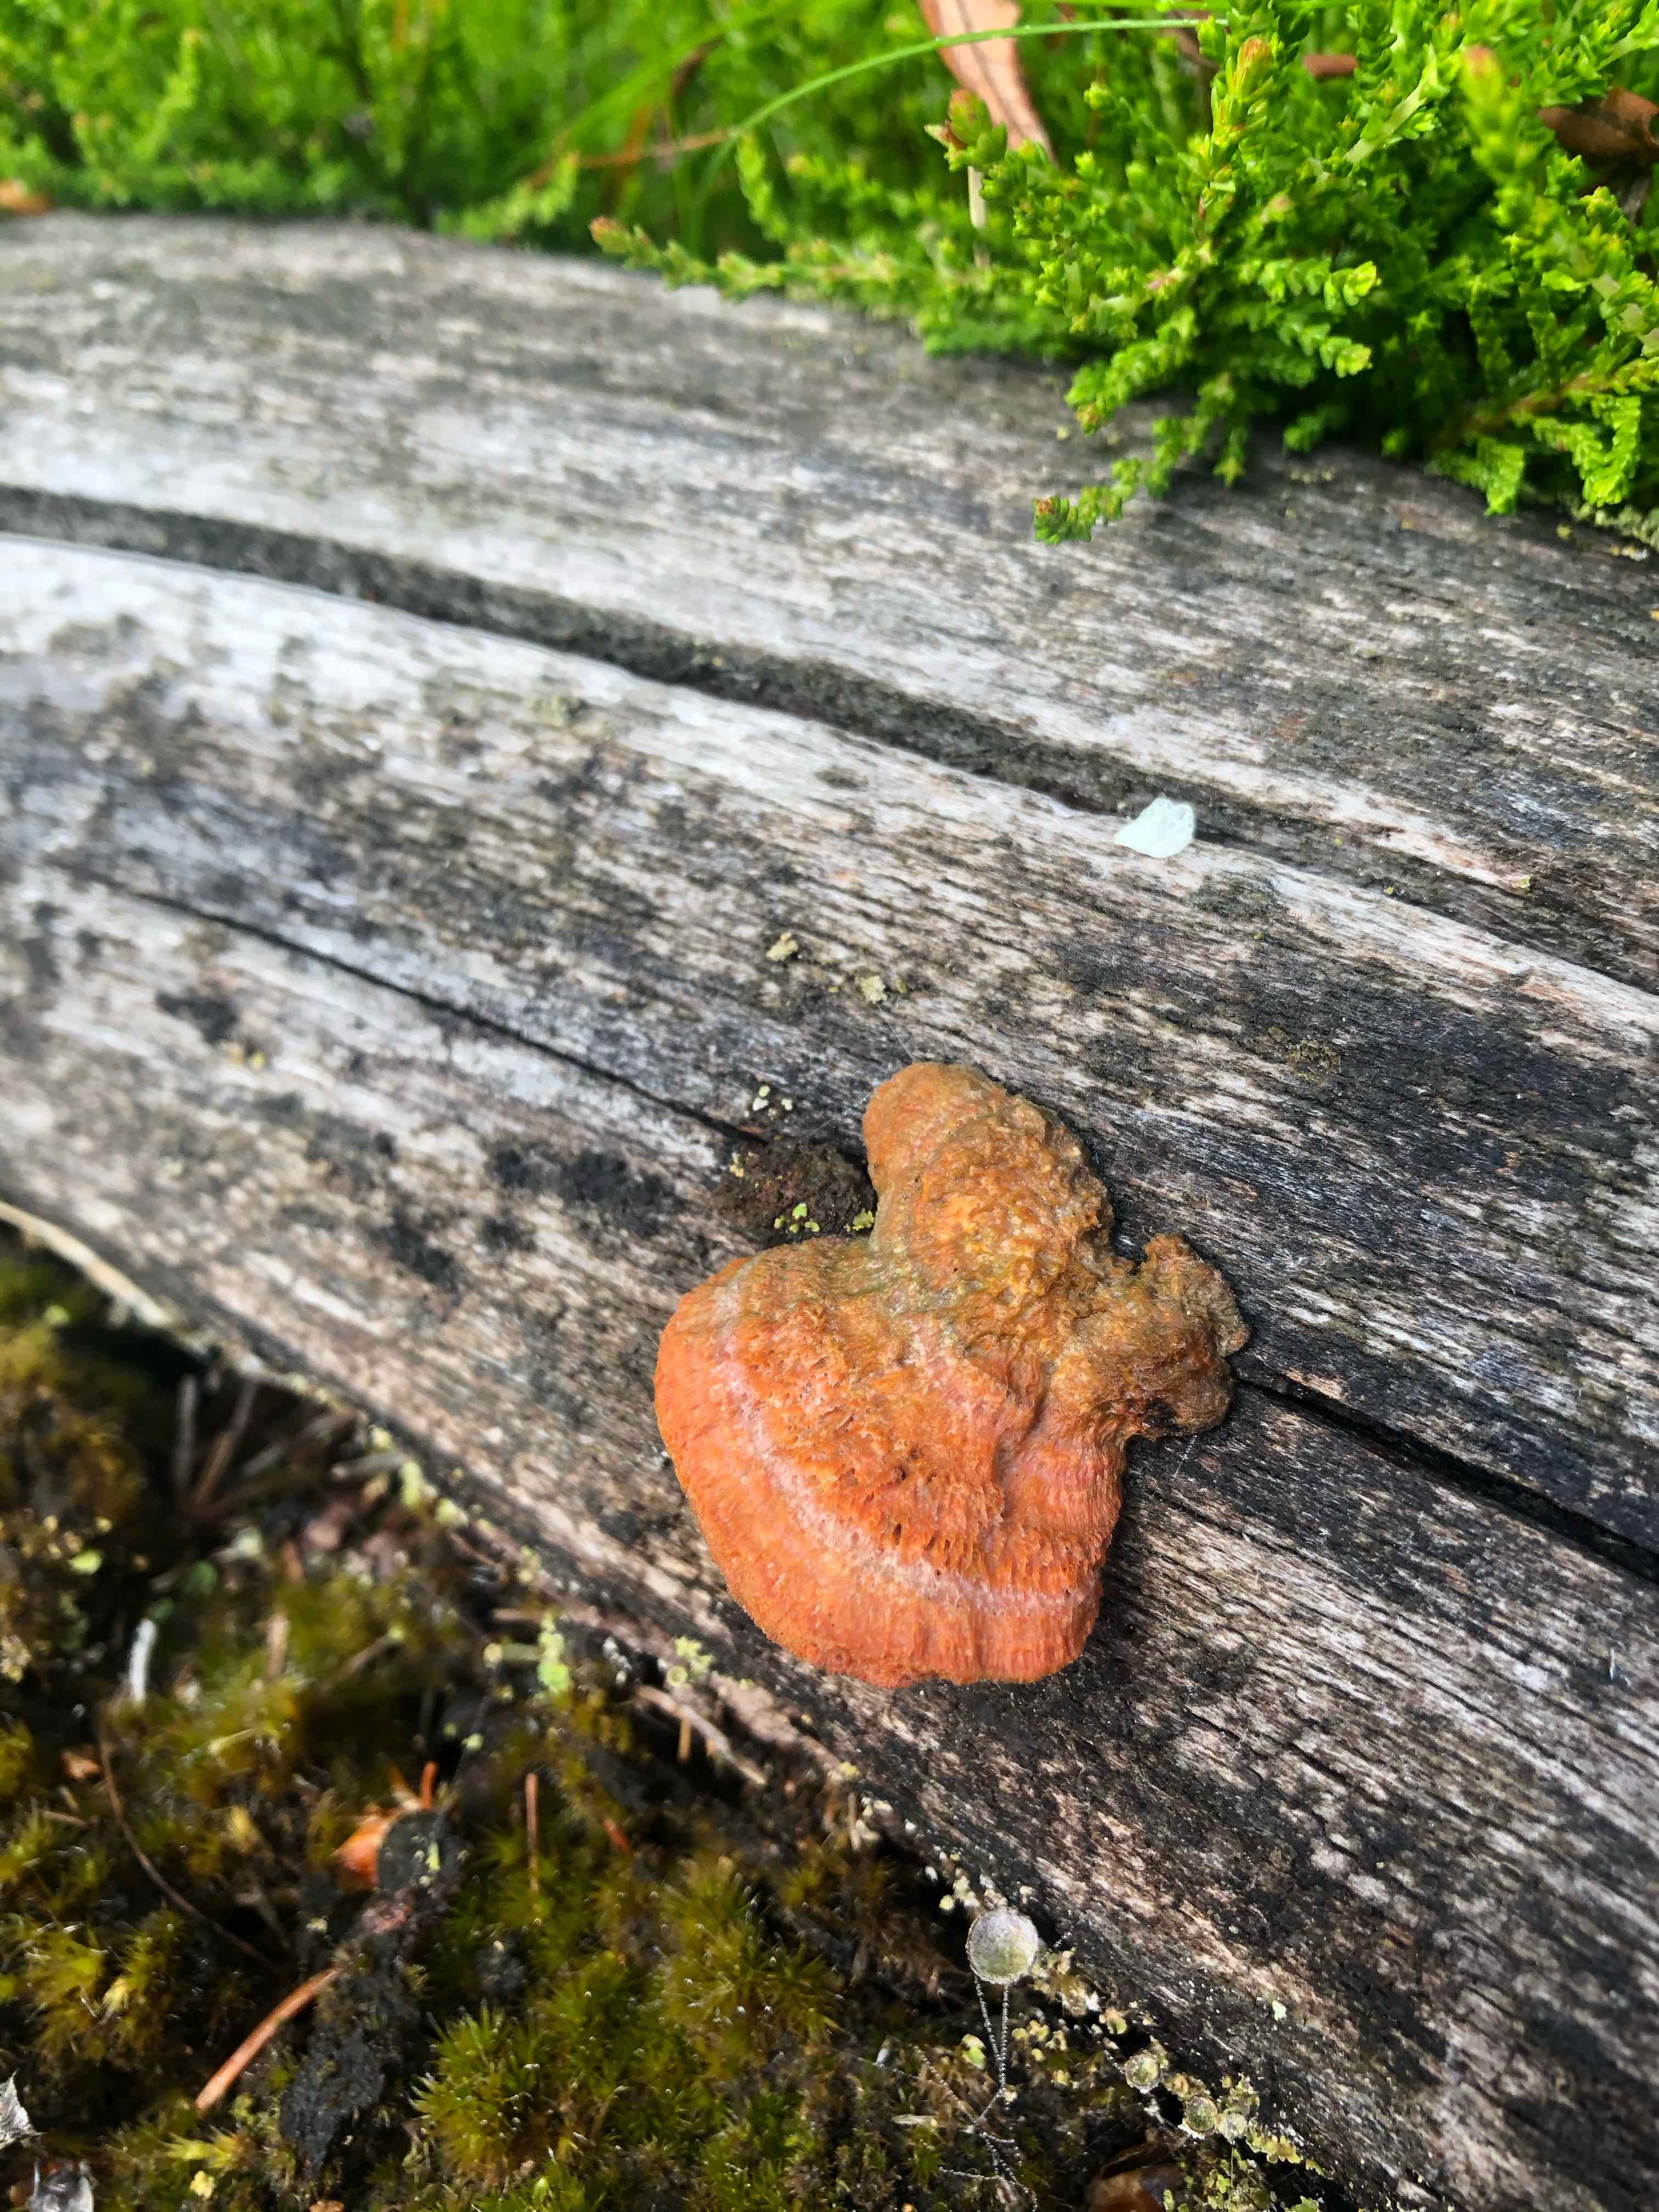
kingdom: Fungi
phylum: Basidiomycota
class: Agaricomycetes
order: Polyporales
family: Polyporaceae
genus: Trametes
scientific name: Trametes cinnabarina
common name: cinnoberporesvamp
